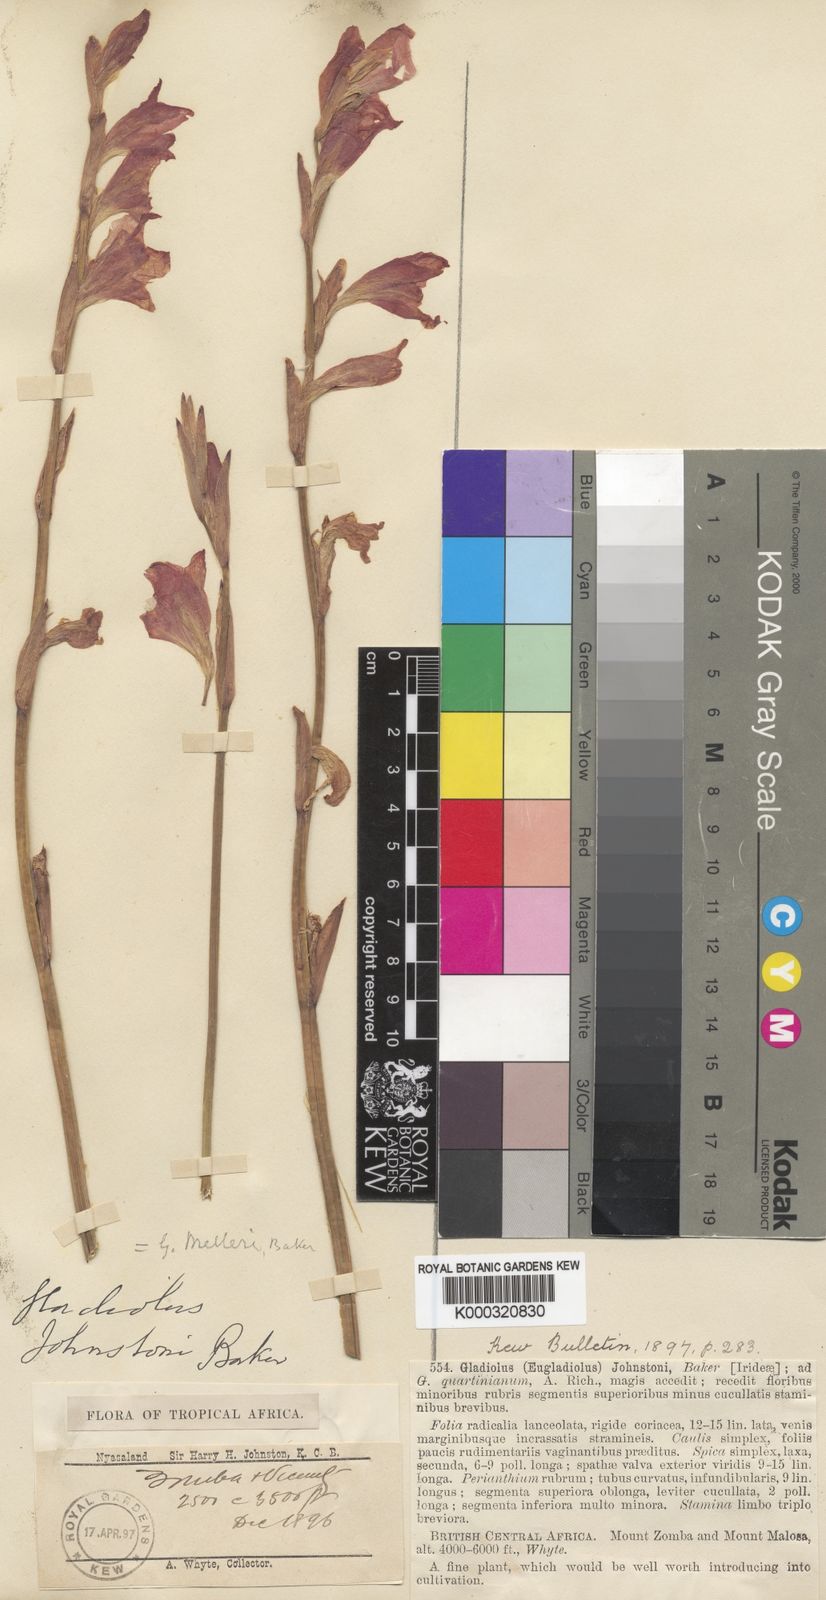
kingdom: Plantae
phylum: Tracheophyta
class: Liliopsida
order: Asparagales
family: Iridaceae
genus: Gladiolus
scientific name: Gladiolus melleri
